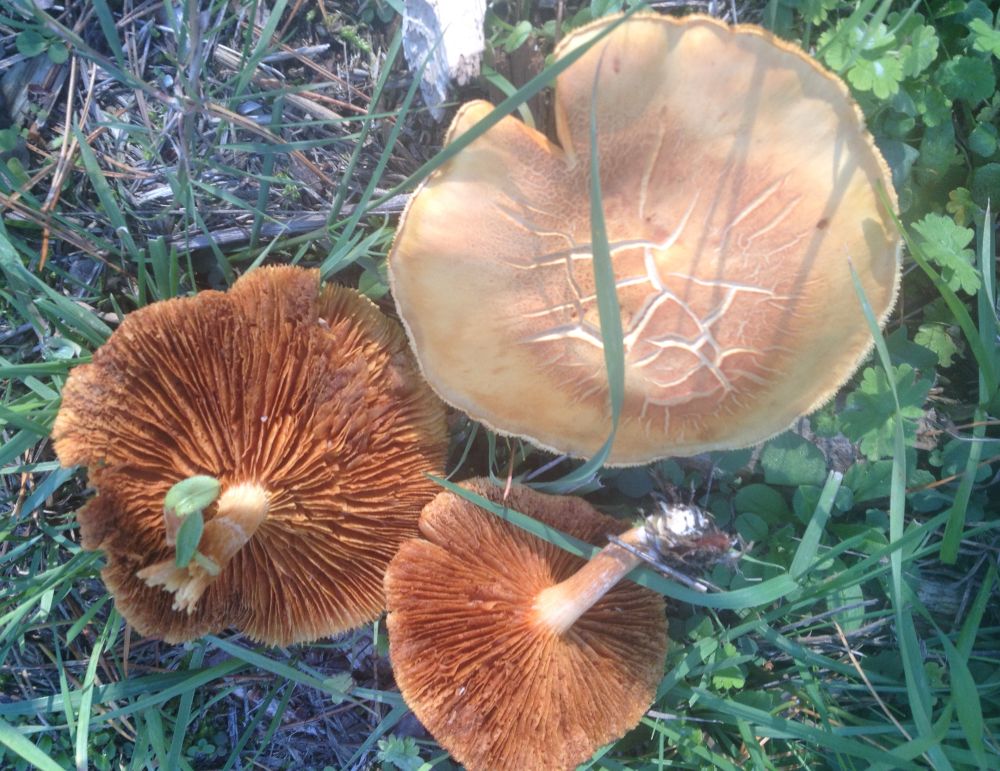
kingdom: Fungi
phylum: Basidiomycota
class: Agaricomycetes
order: Agaricales
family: Hymenogastraceae
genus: Gymnopilus
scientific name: Gymnopilus penetrans
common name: plettet flammehat
